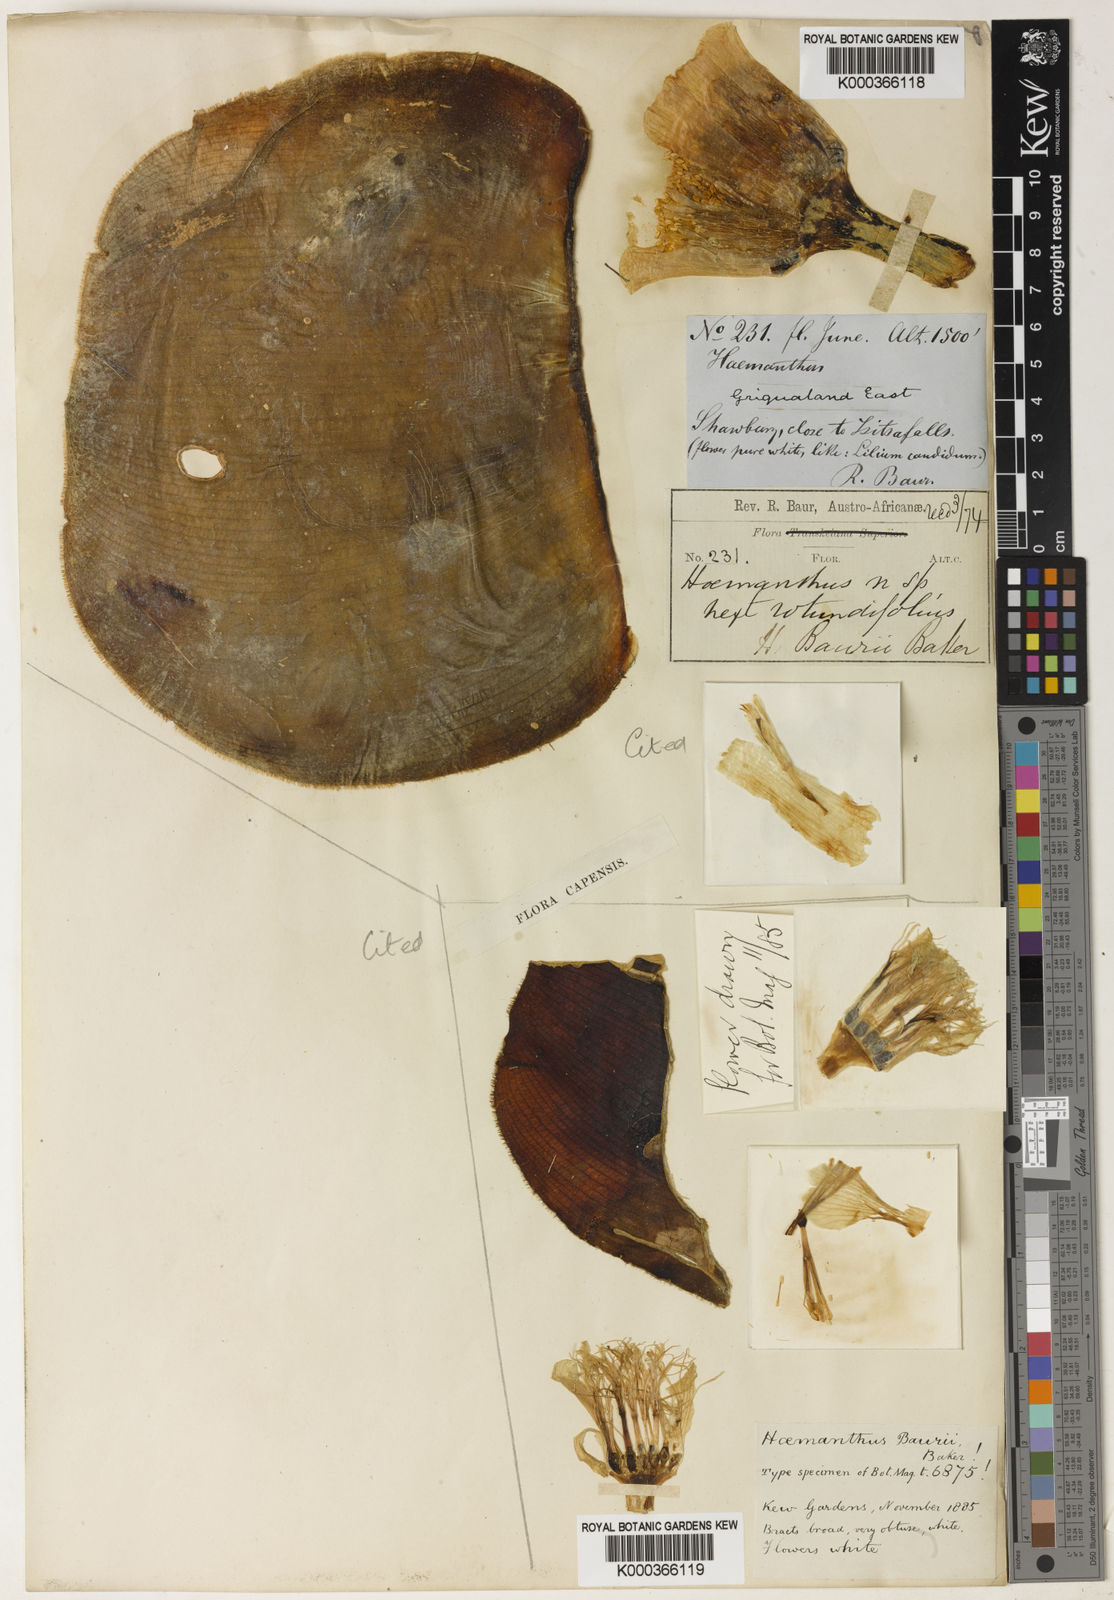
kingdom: Plantae
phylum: Tracheophyta
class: Liliopsida
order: Asparagales
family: Amaryllidaceae
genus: Haemanthus
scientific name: Haemanthus deformis
